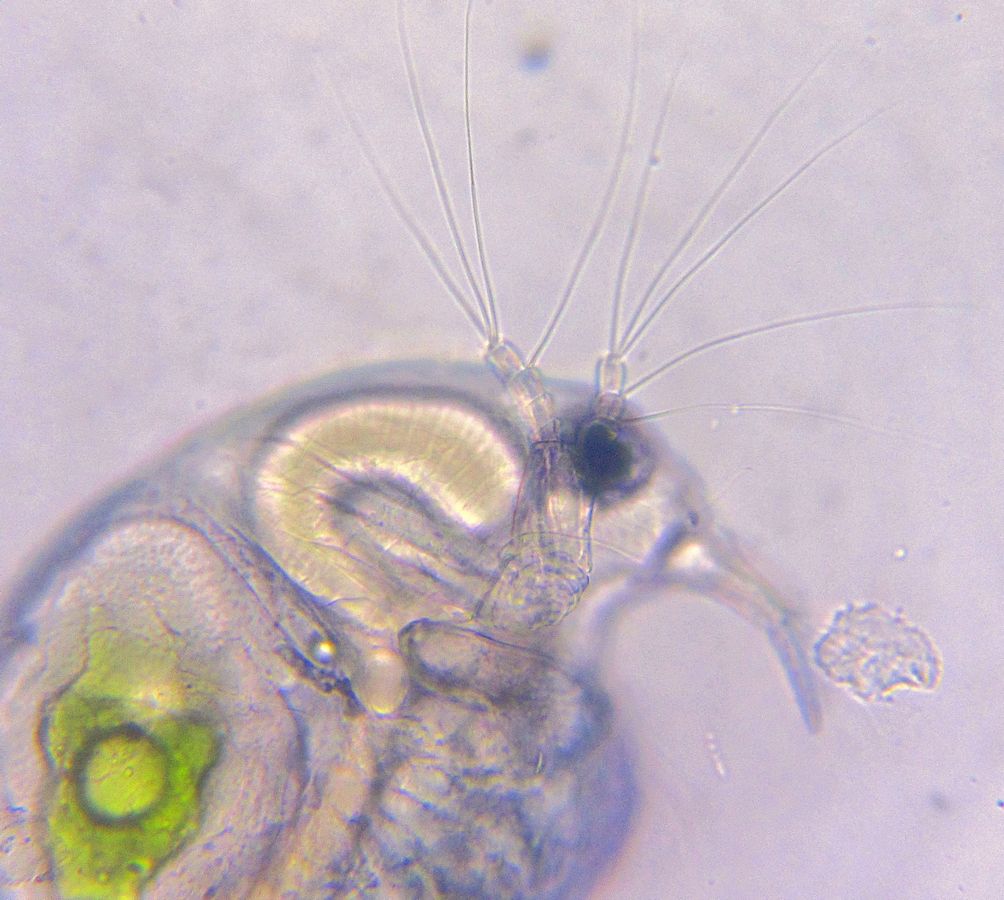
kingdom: Animalia
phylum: Arthropoda
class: Branchiopoda
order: Diplostraca
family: Bosminidae
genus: Bosmina
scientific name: Bosmina longirostris
